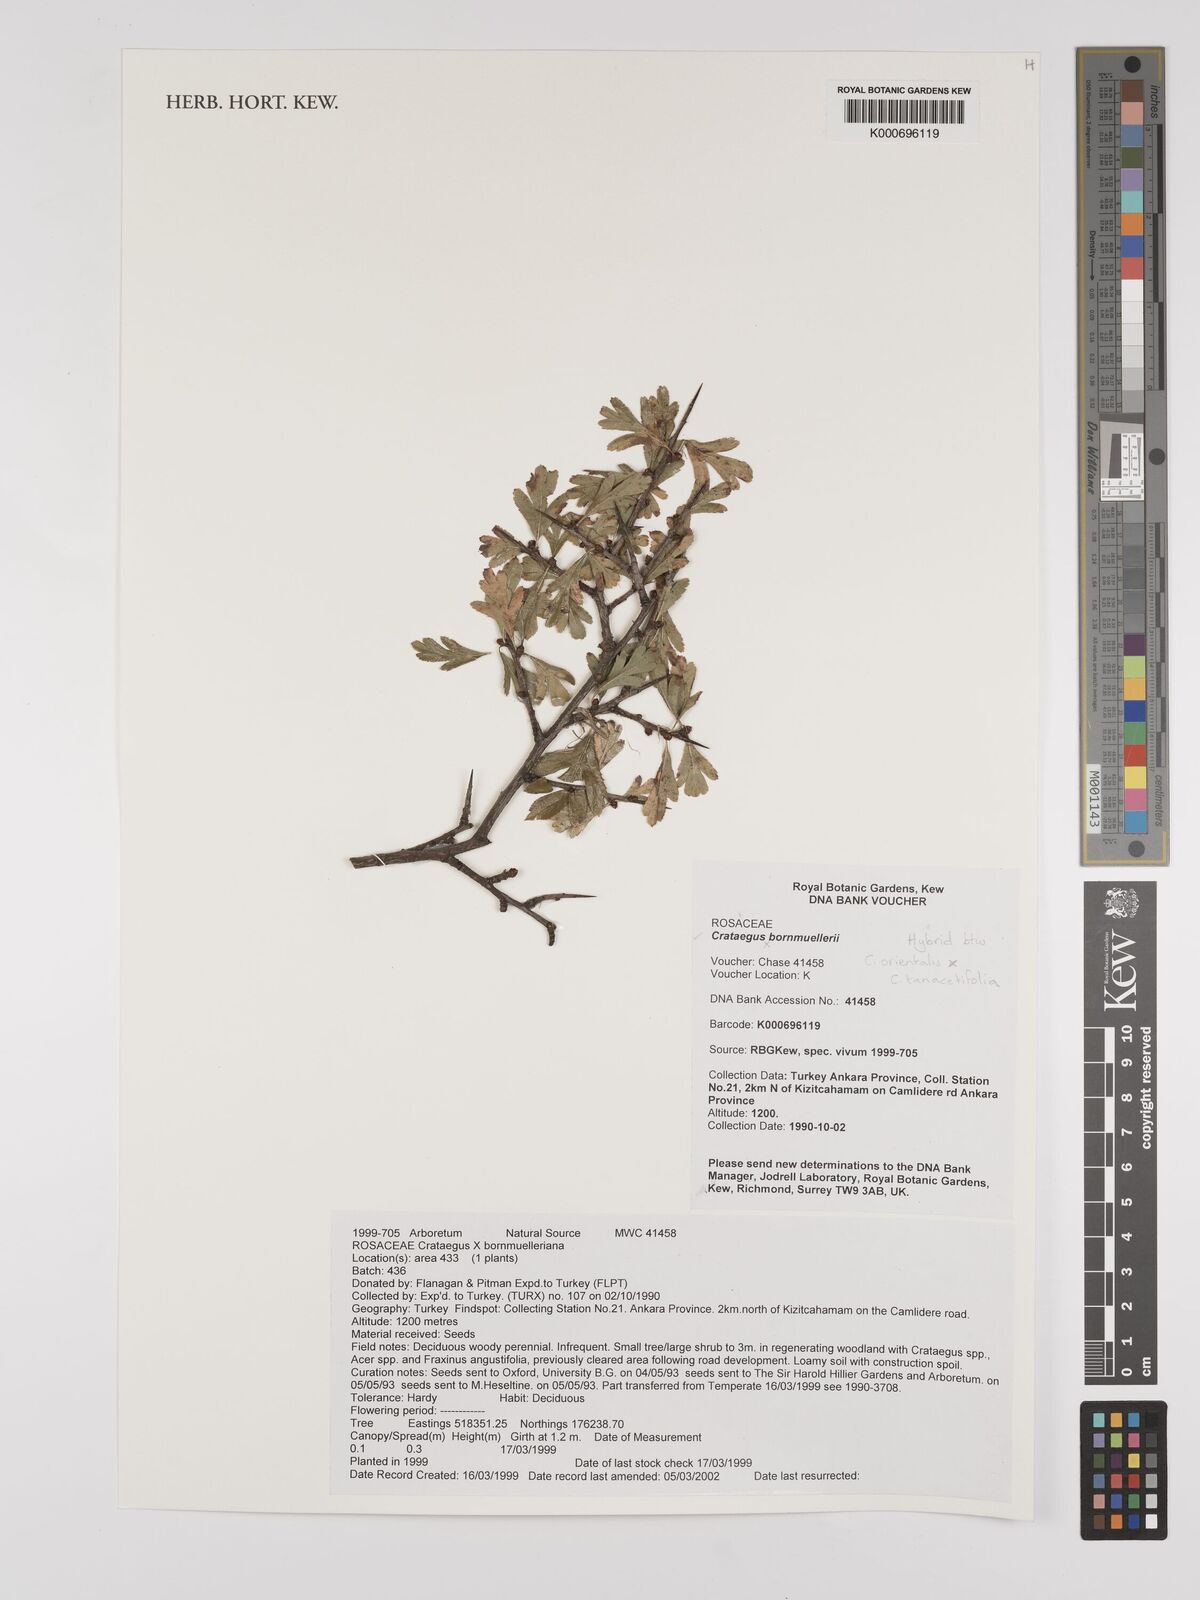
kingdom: Plantae
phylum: Tracheophyta
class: Magnoliopsida
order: Rosales
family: Rosaceae
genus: Crataegus
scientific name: Crataegus bornmuelleri
